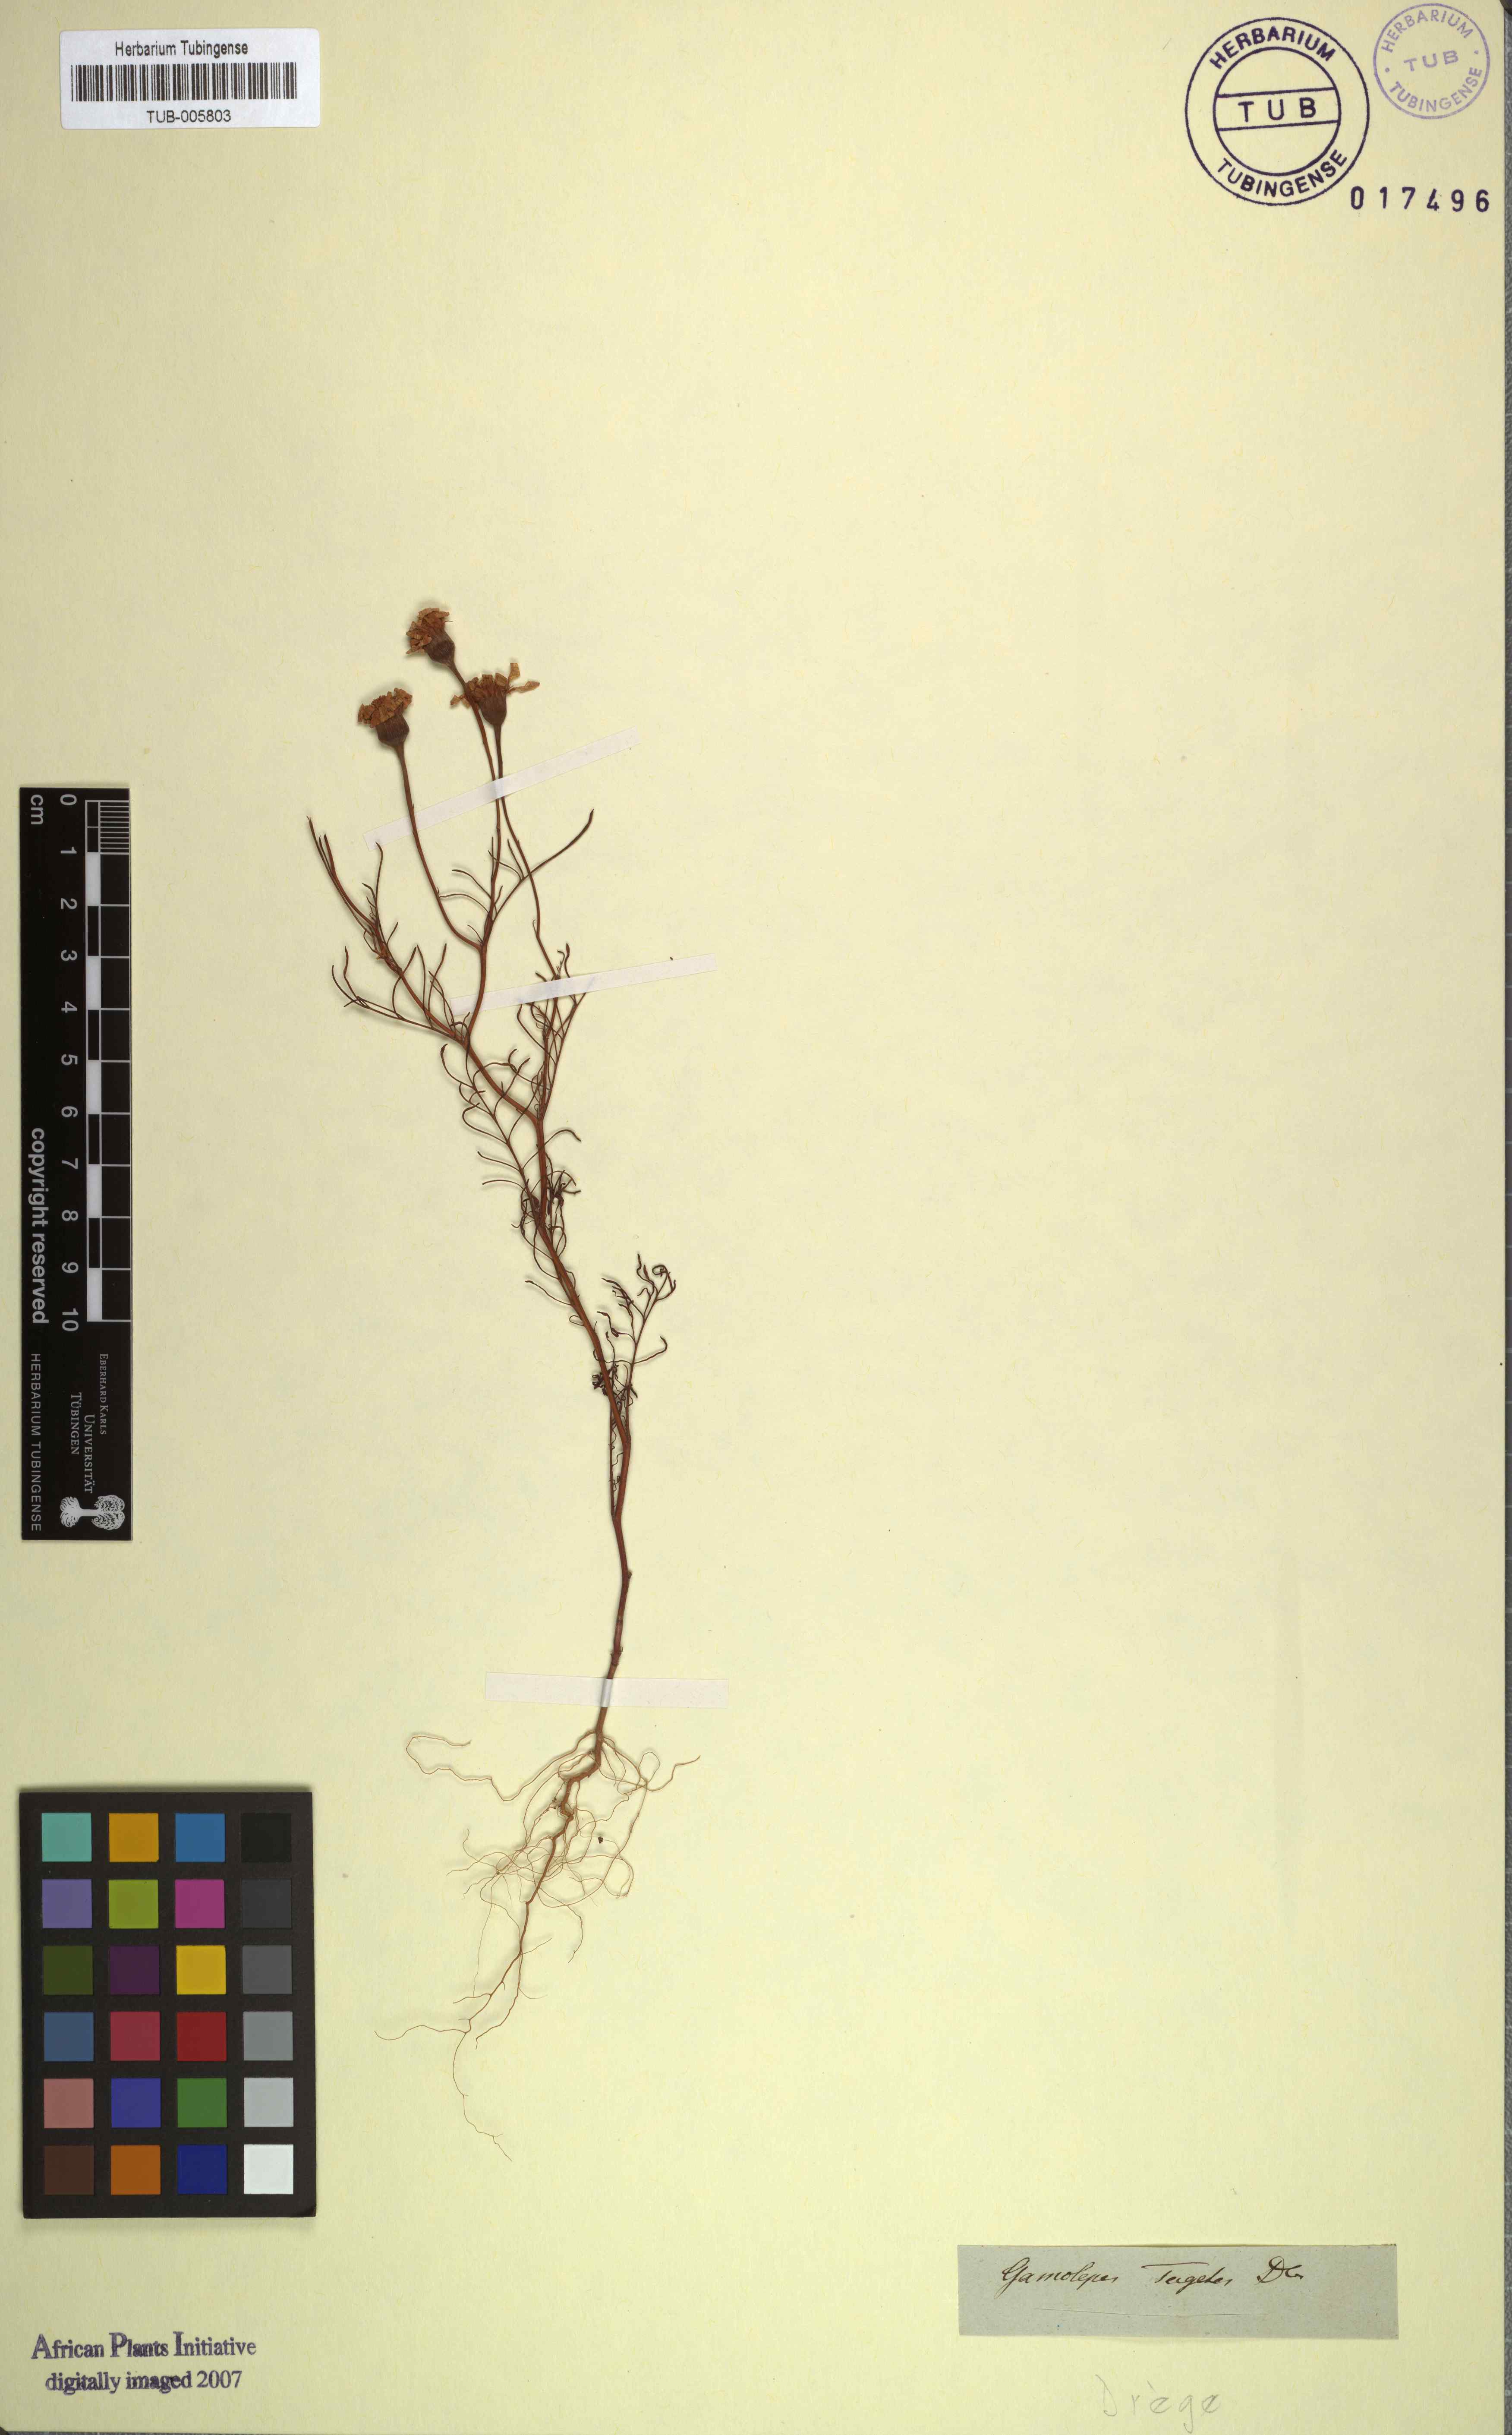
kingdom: Plantae
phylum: Tracheophyta
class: Magnoliopsida
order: Asterales
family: Asteraceae
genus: Steirodiscus
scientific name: Steirodiscus tagetes
